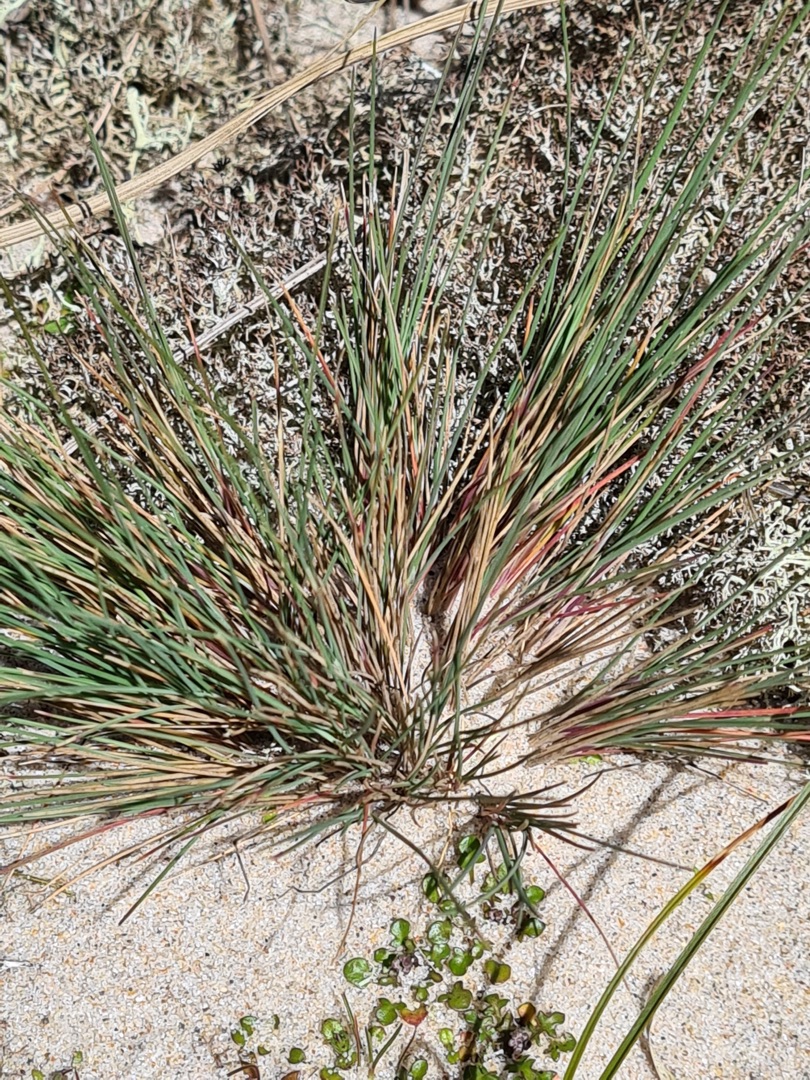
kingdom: Plantae
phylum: Tracheophyta
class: Liliopsida
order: Poales
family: Poaceae
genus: Corynephorus
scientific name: Corynephorus canescens
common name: Sandskæg
